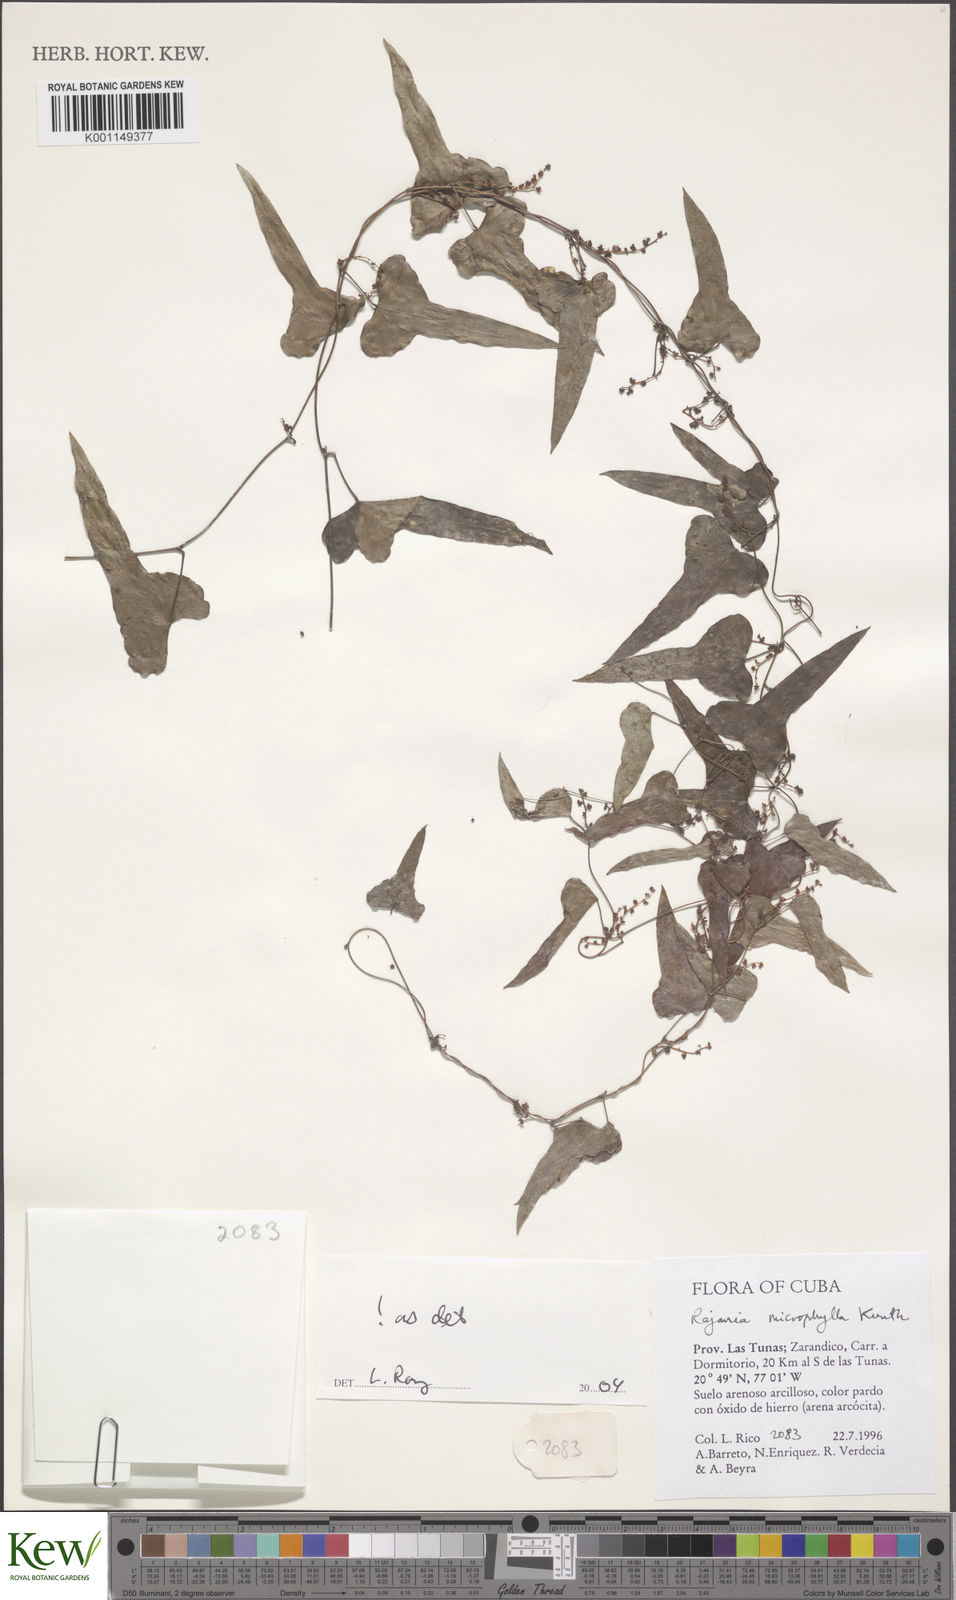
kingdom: Plantae
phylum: Tracheophyta
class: Liliopsida
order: Dioscoreales
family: Dioscoreaceae
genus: Dioscorea
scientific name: Dioscorea variifolia
